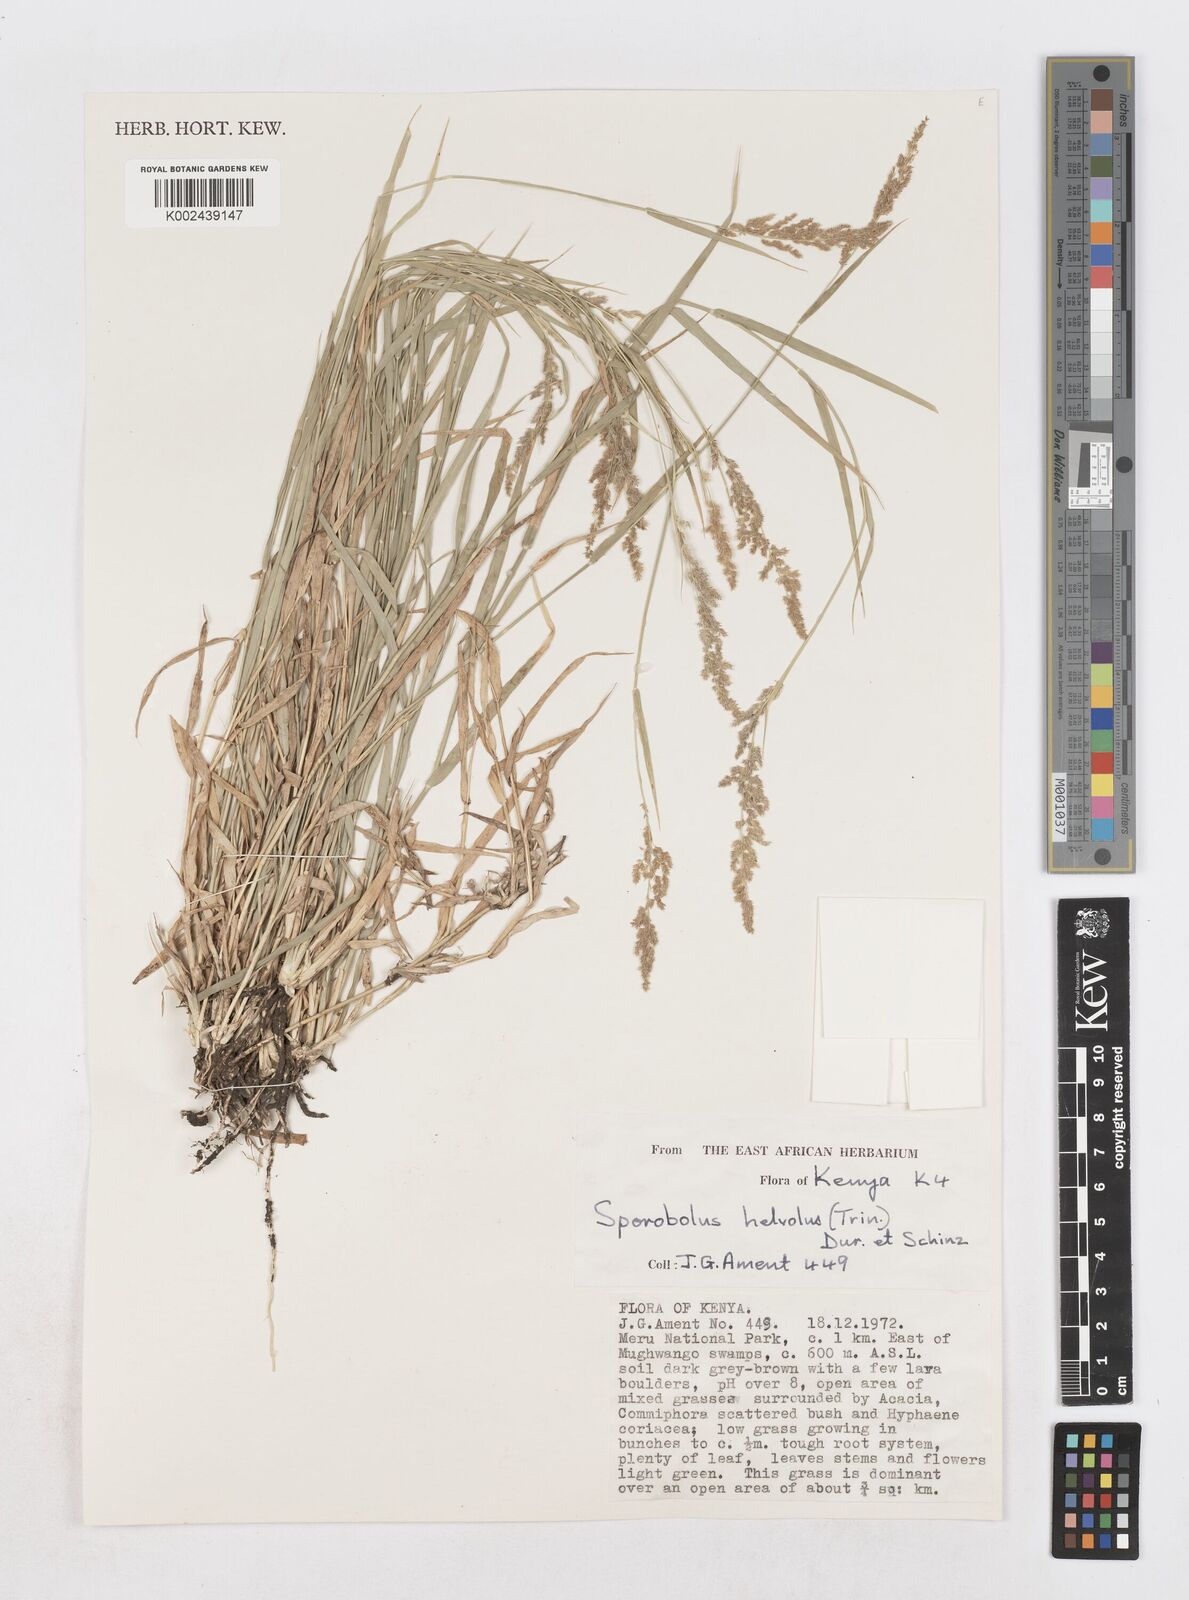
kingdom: Plantae
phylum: Tracheophyta
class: Liliopsida
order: Poales
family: Poaceae
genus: Sporobolus
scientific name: Sporobolus helvolus
